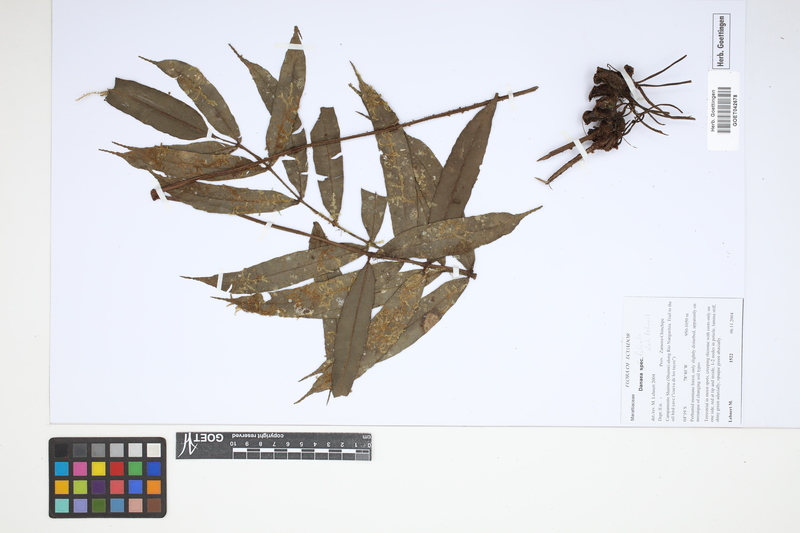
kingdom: Plantae
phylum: Tracheophyta
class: Polypodiopsida
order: Marattiales
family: Marattiaceae
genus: Danaea
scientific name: Danaea falcata
